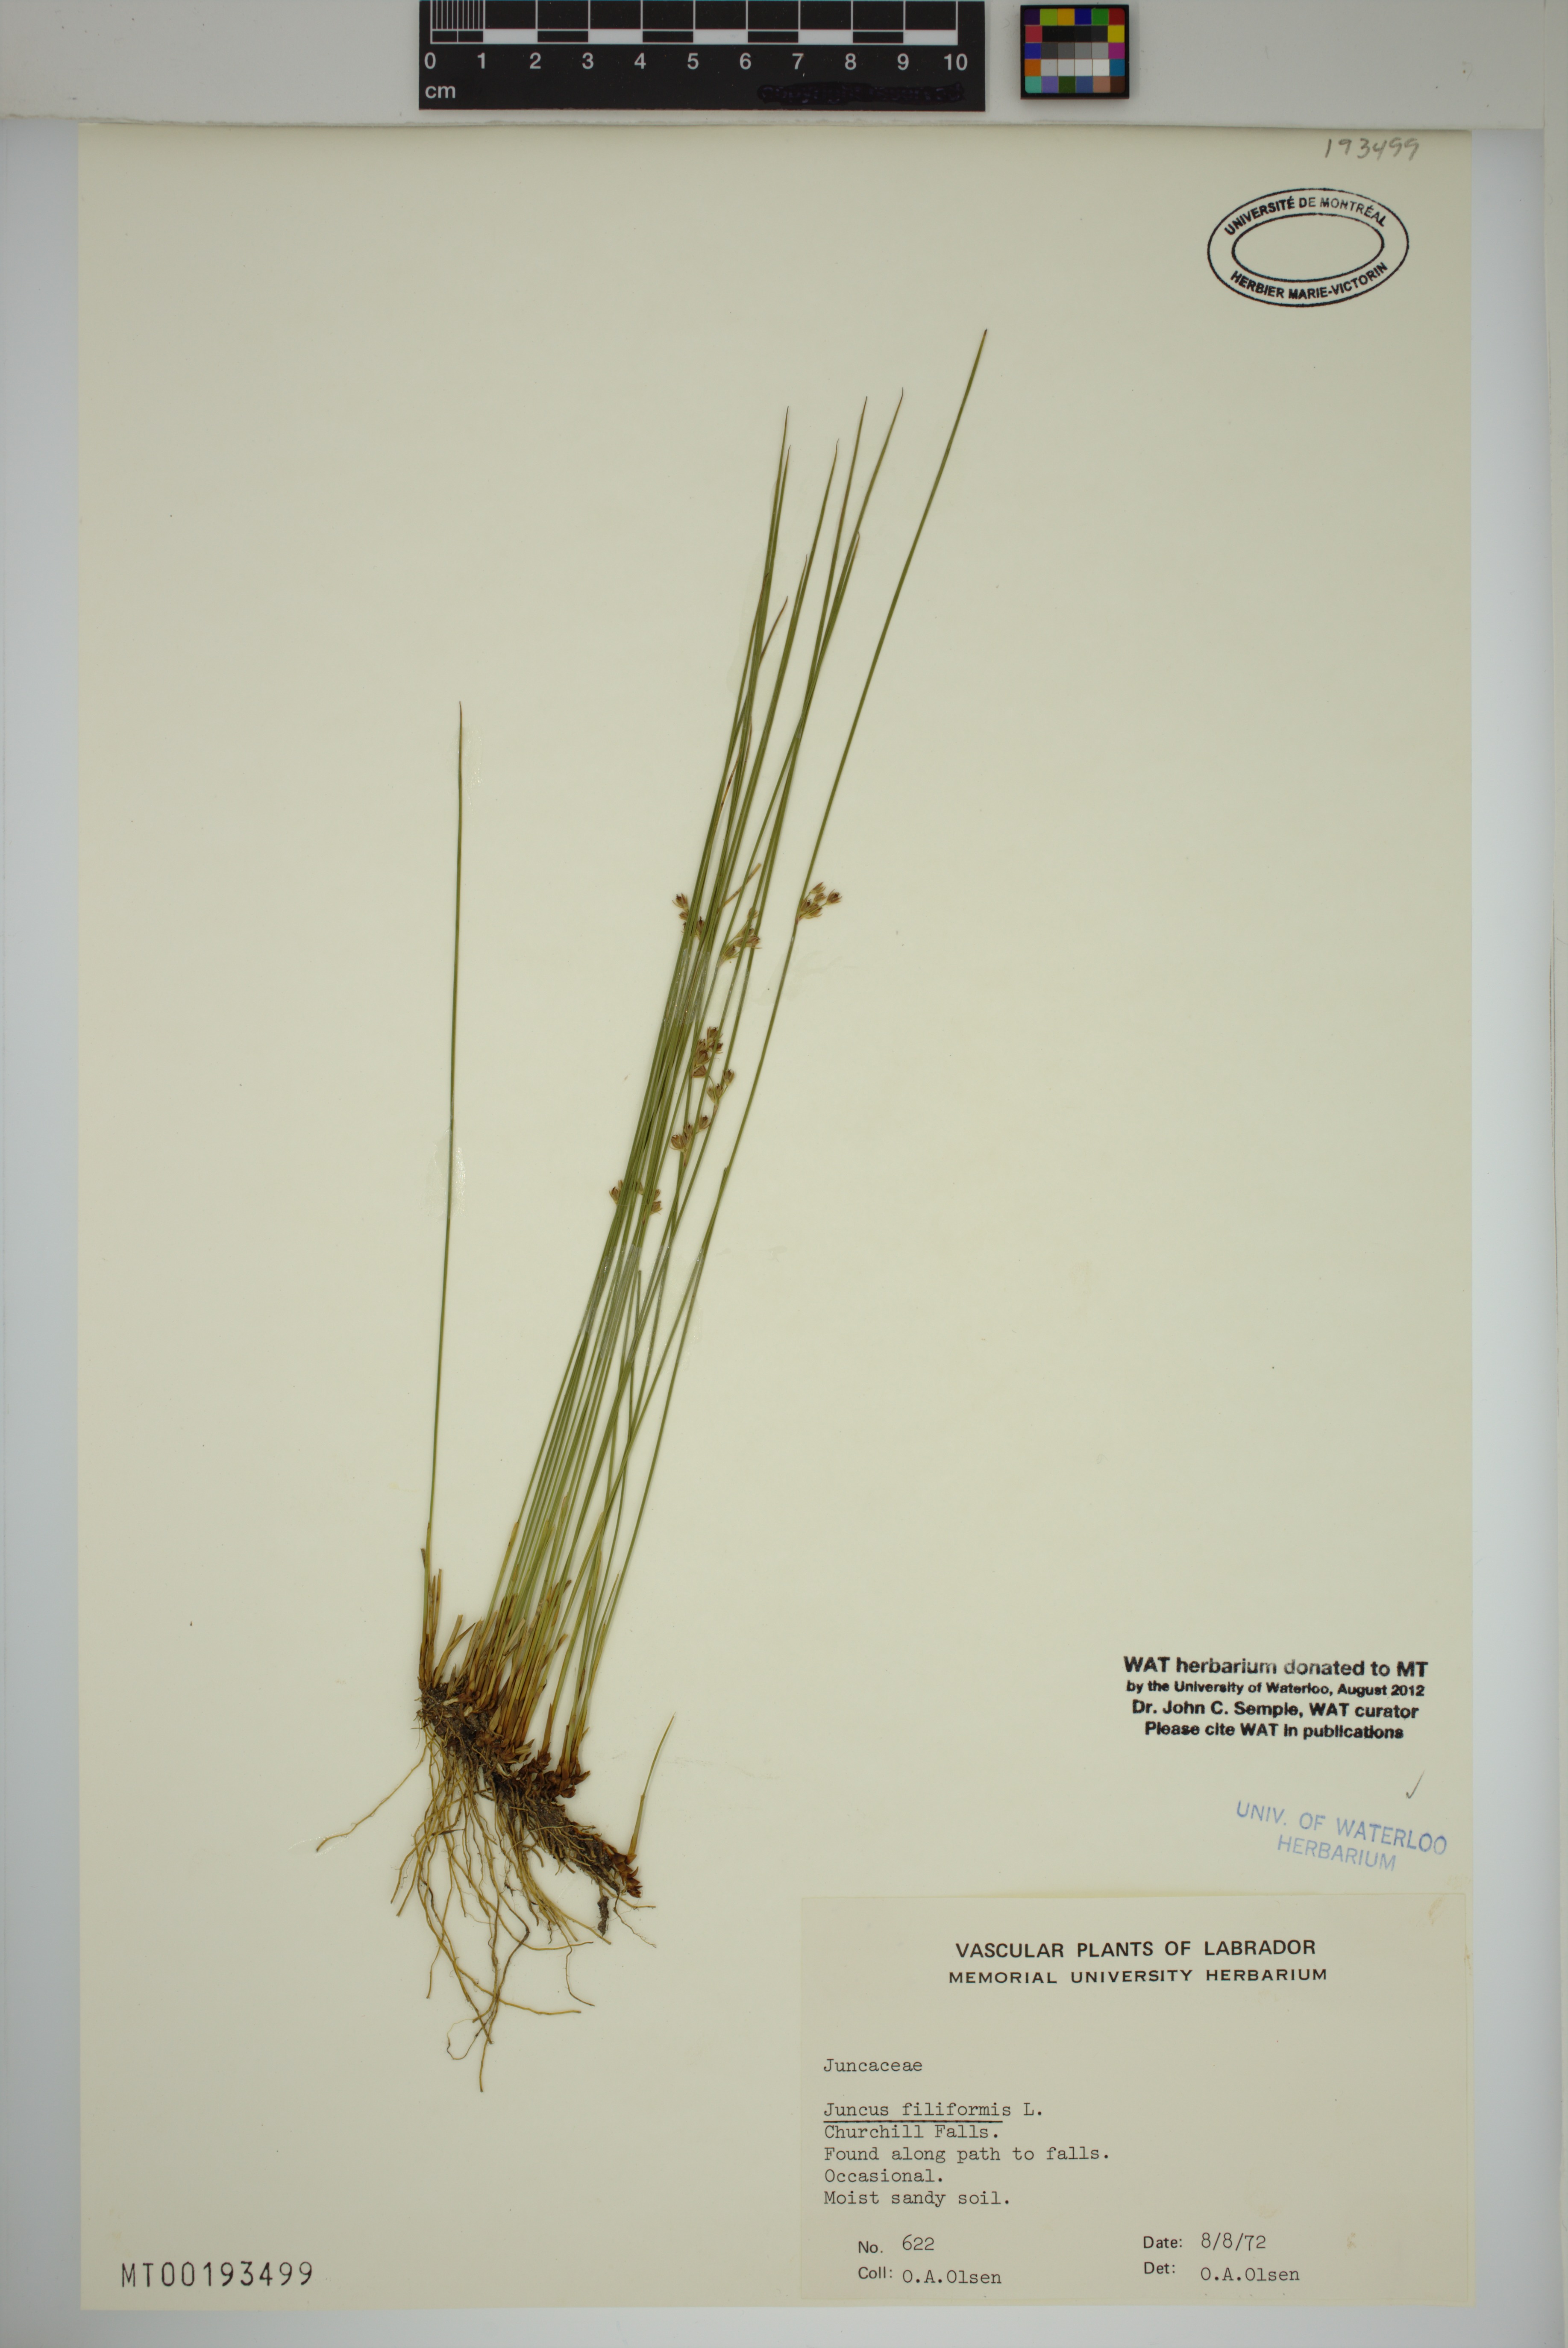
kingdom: Plantae
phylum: Tracheophyta
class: Liliopsida
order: Poales
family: Juncaceae
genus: Juncus
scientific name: Juncus filiformis
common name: Thread rush
